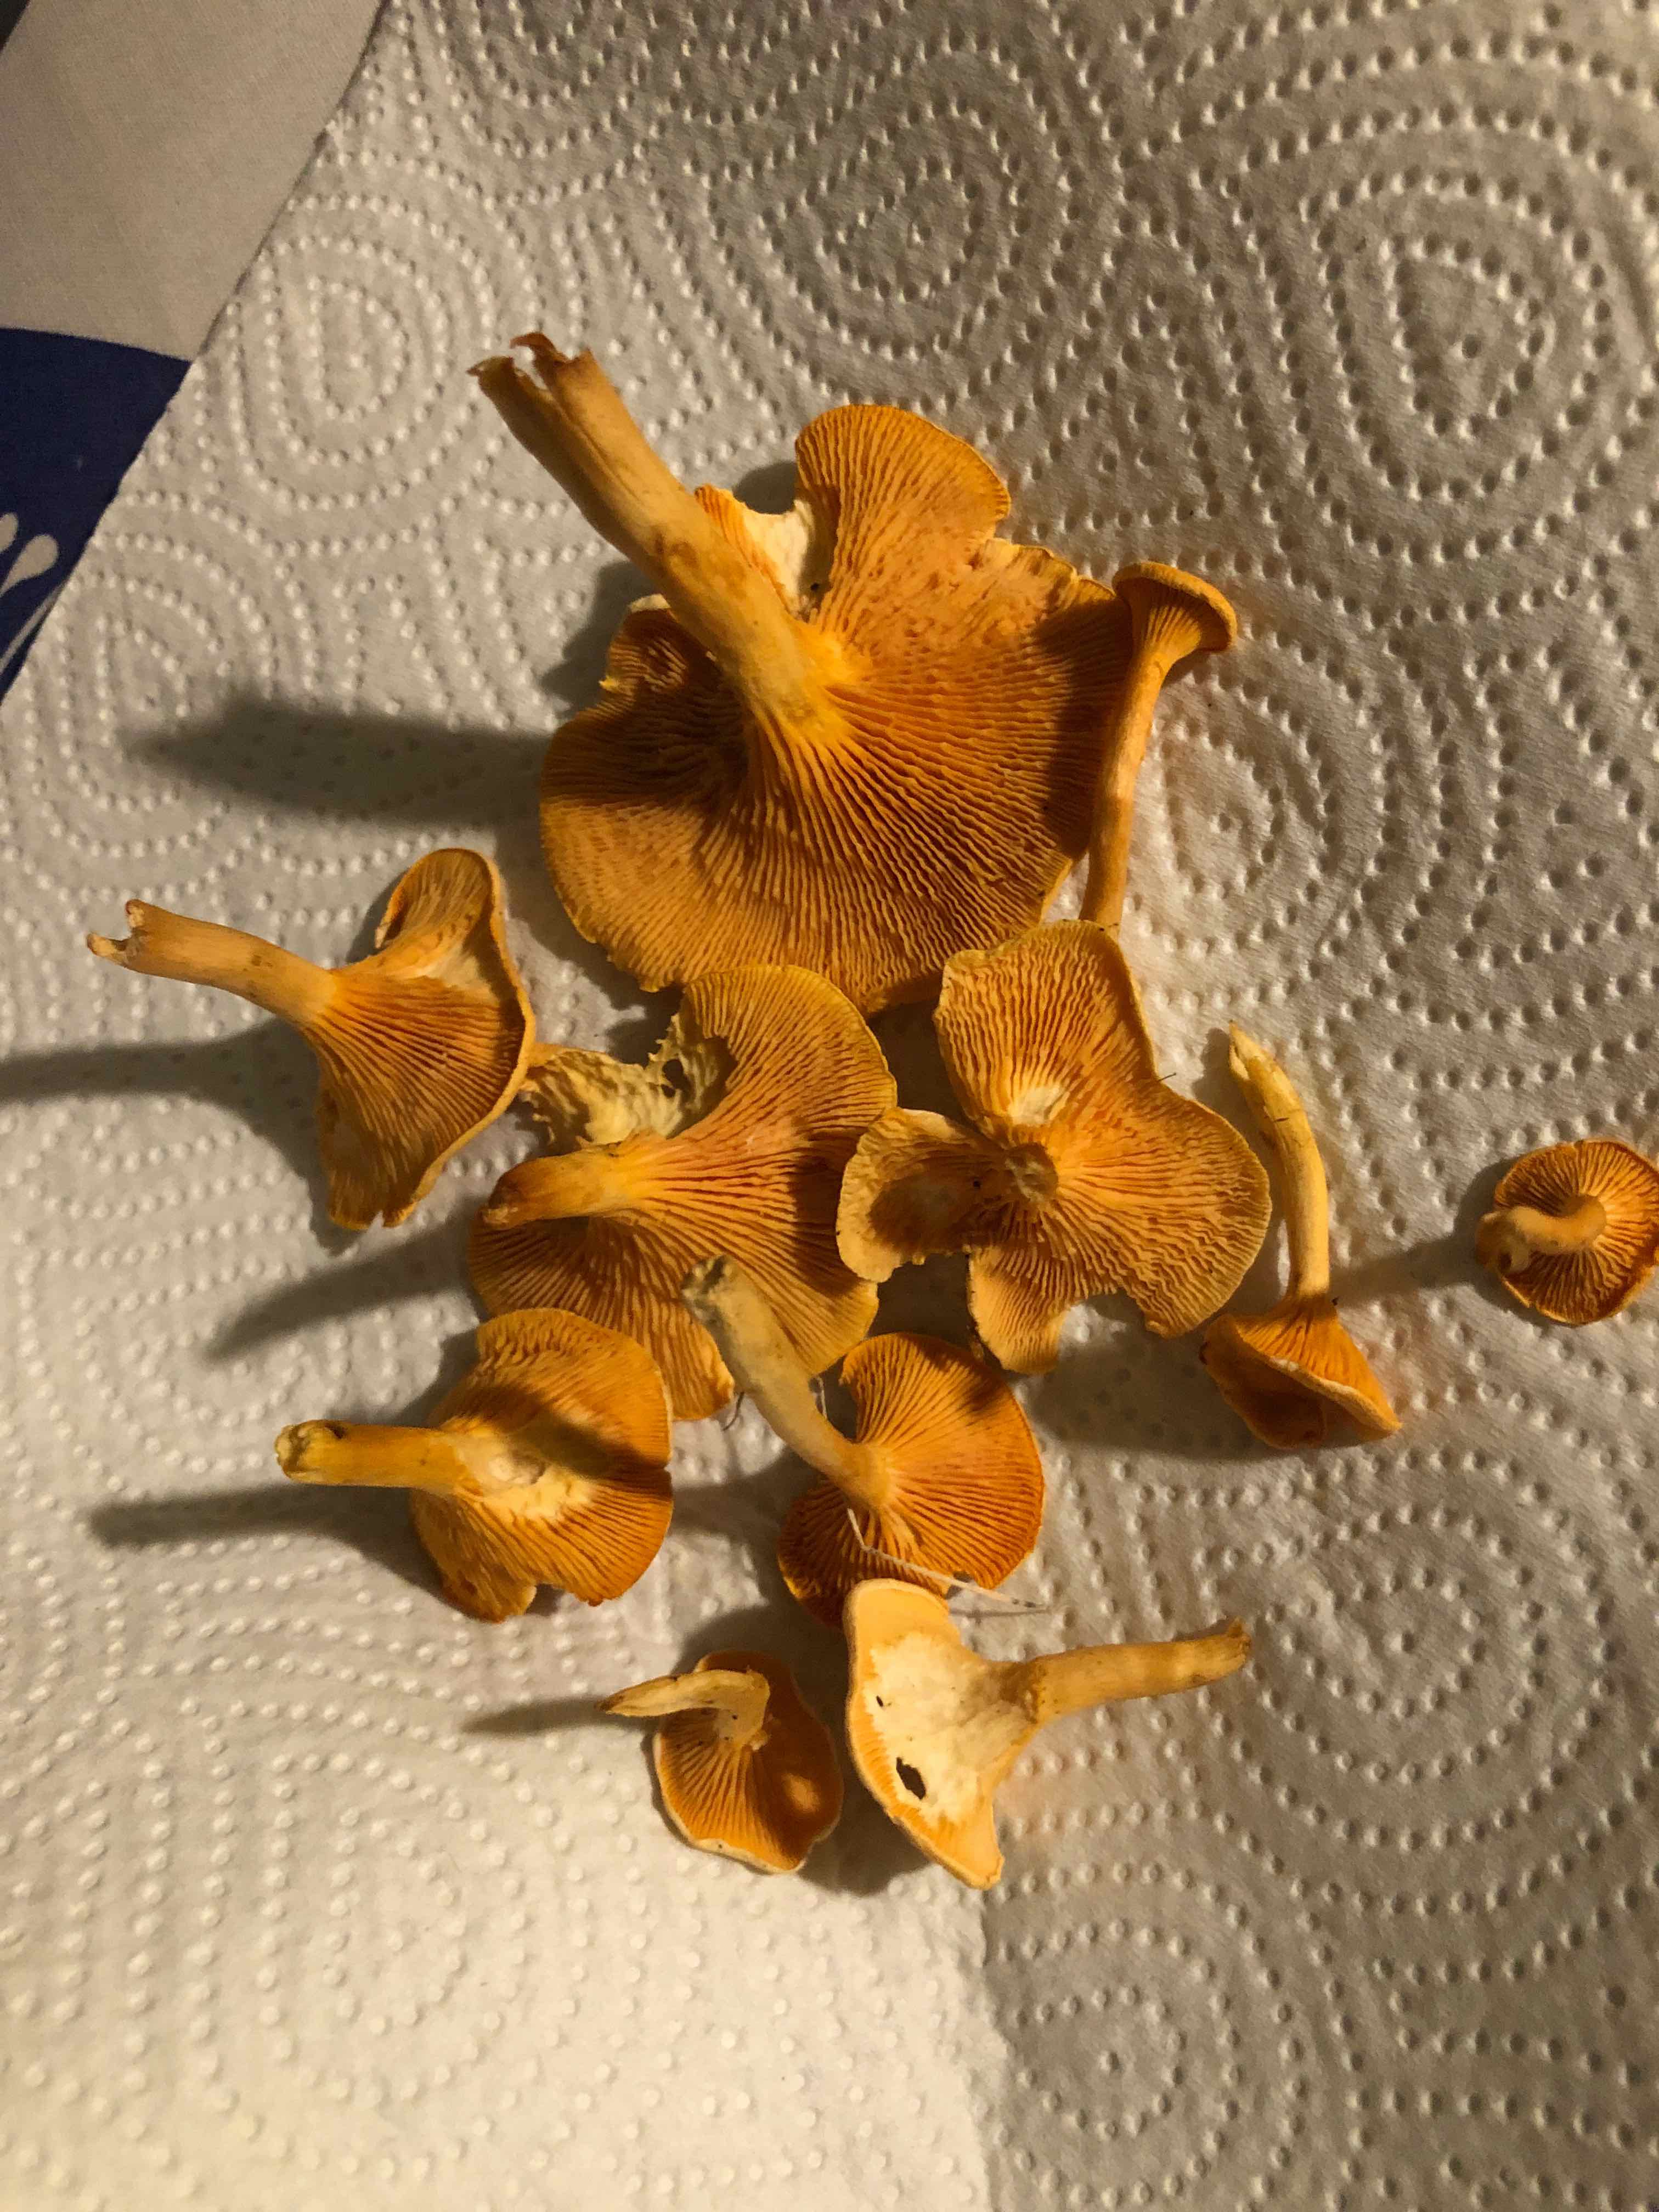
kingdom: Fungi
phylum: Basidiomycota
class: Agaricomycetes
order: Boletales
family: Hygrophoropsidaceae
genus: Hygrophoropsis
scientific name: Hygrophoropsis aurantiaca
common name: almindelig orangekantarel
